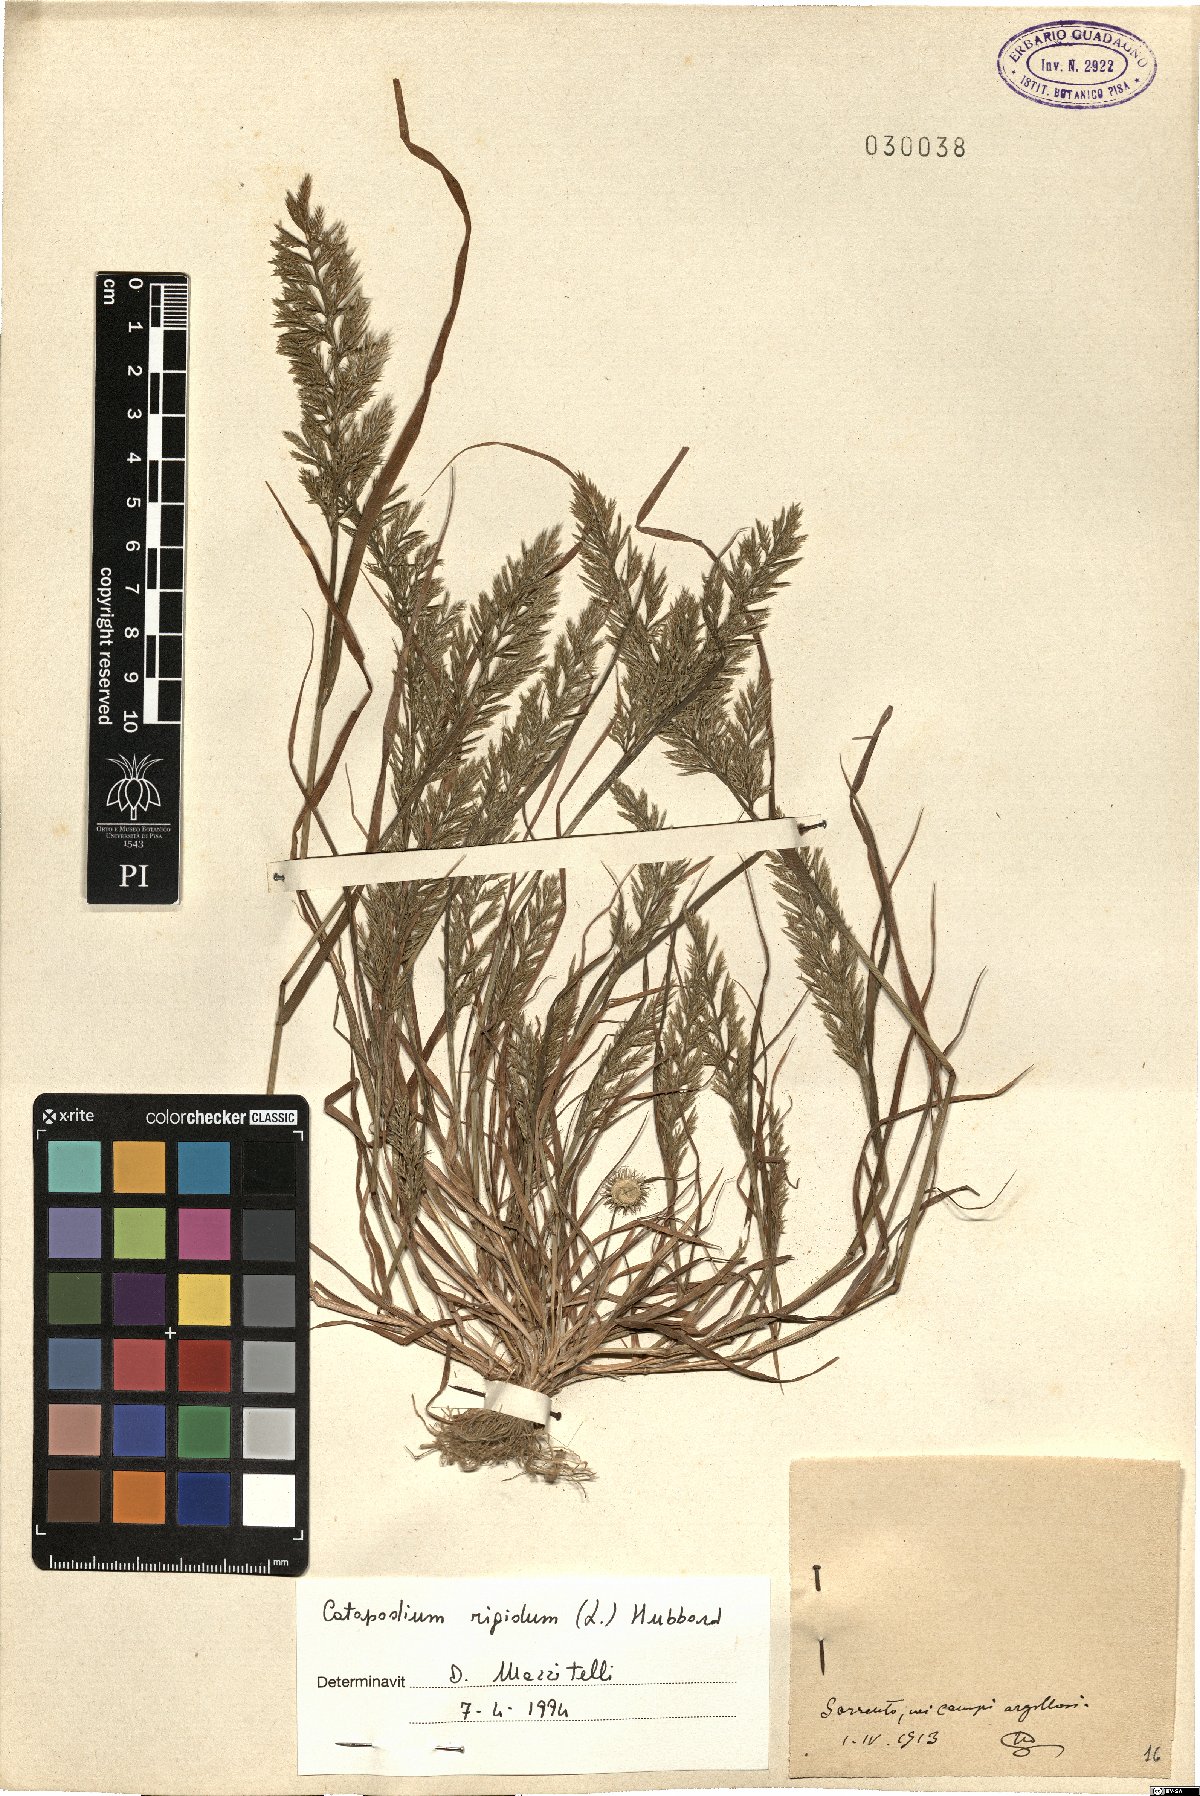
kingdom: Plantae
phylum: Tracheophyta
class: Liliopsida
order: Poales
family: Poaceae
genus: Catapodium
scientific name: Catapodium rigidum
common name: Fern-grass
